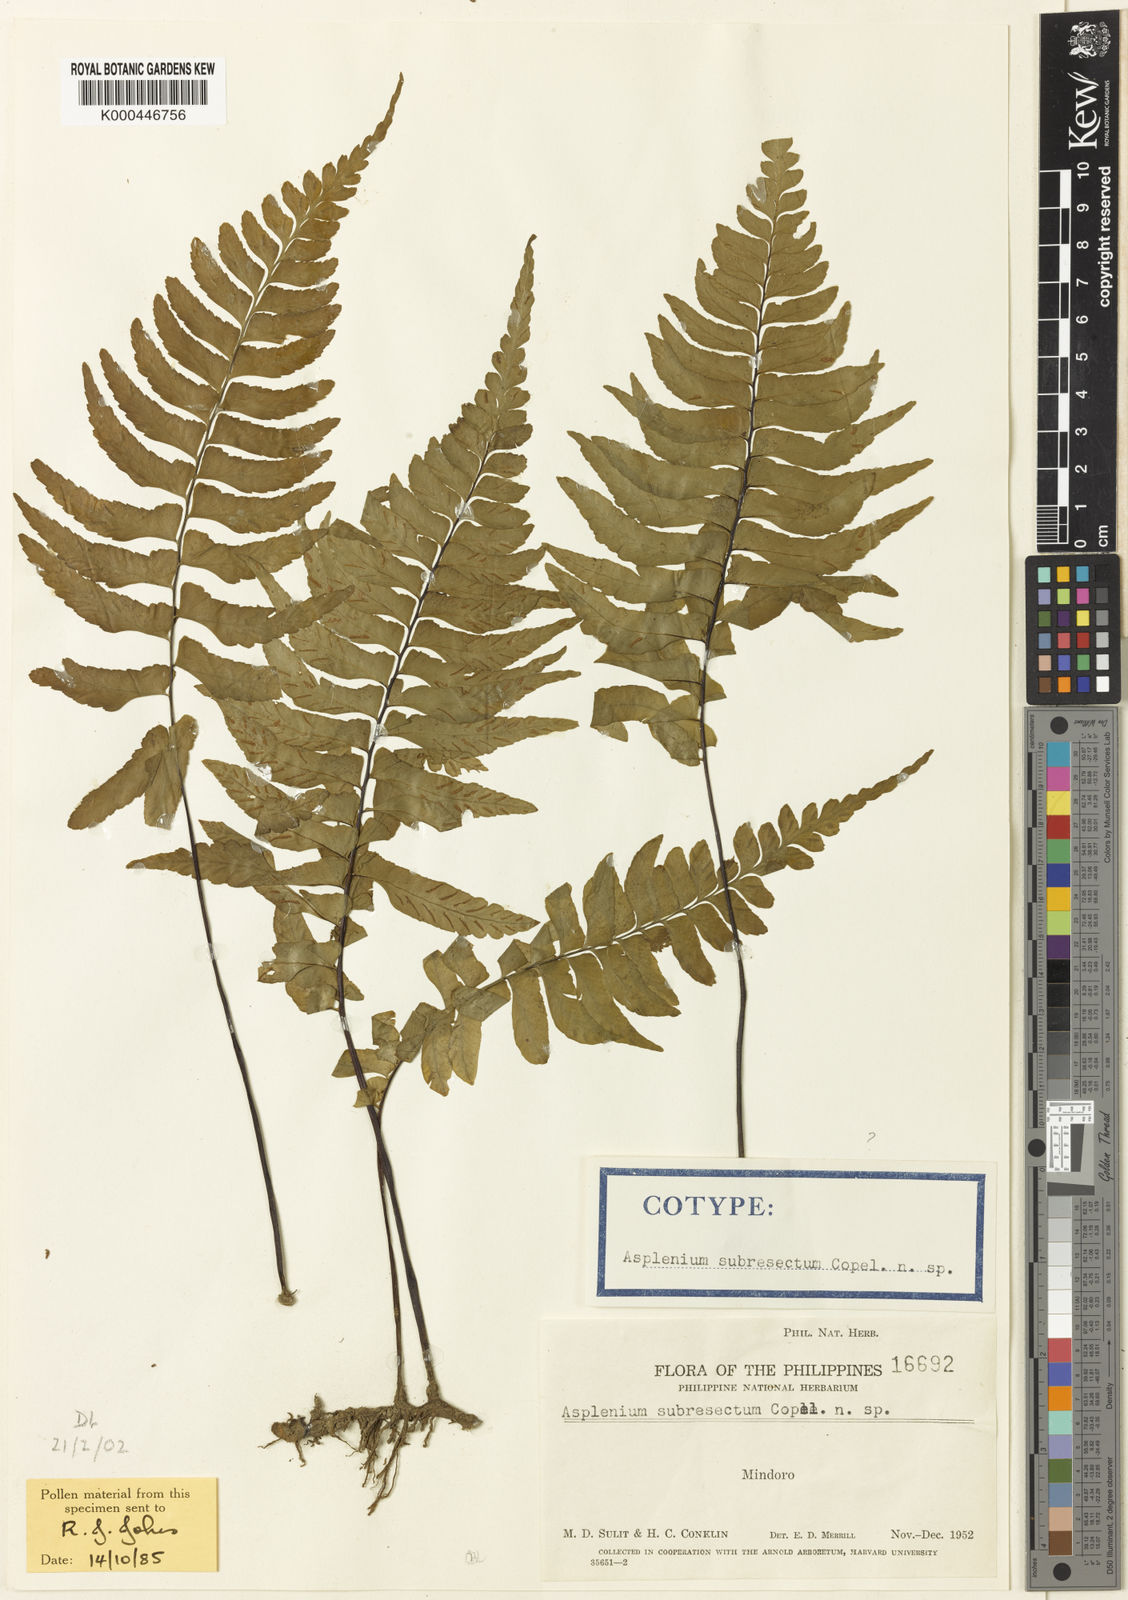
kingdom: Plantae
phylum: Tracheophyta
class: Polypodiopsida
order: Polypodiales
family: Aspleniaceae
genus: Hymenasplenium
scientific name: Hymenasplenium excisum
